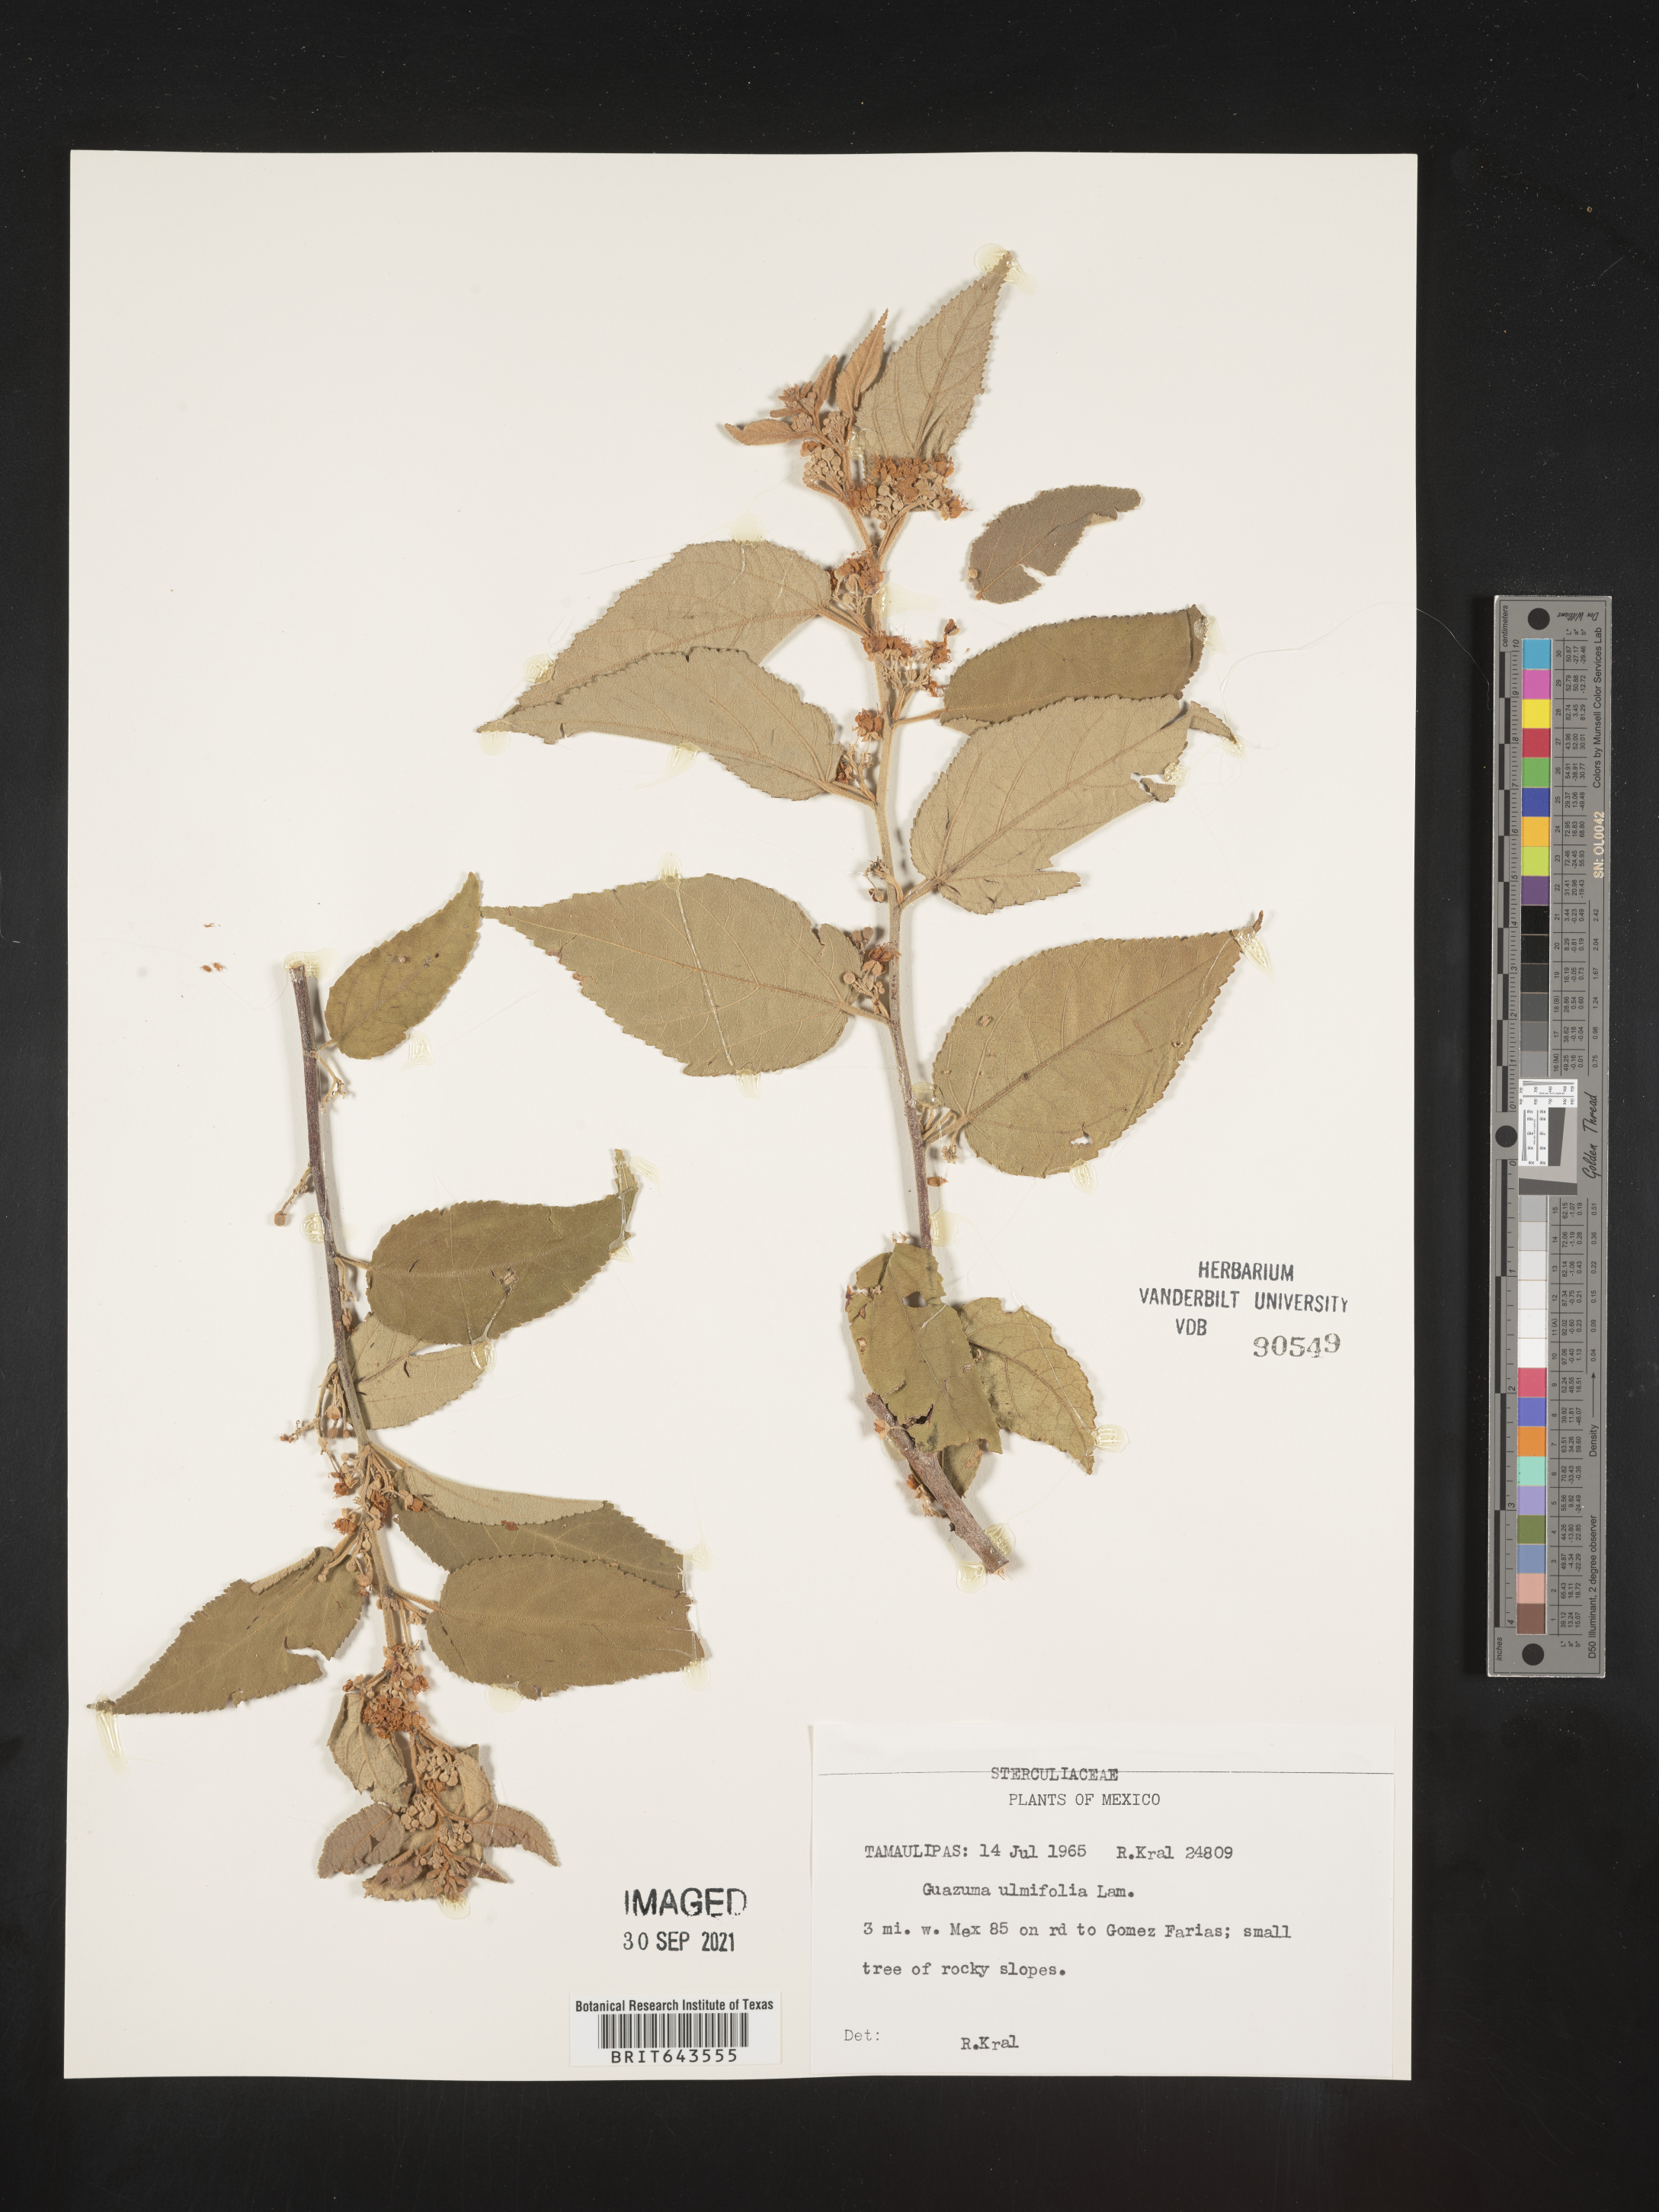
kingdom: Plantae
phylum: Tracheophyta
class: Magnoliopsida
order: Malvales
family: Malvaceae
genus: Guazuma
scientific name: Guazuma
